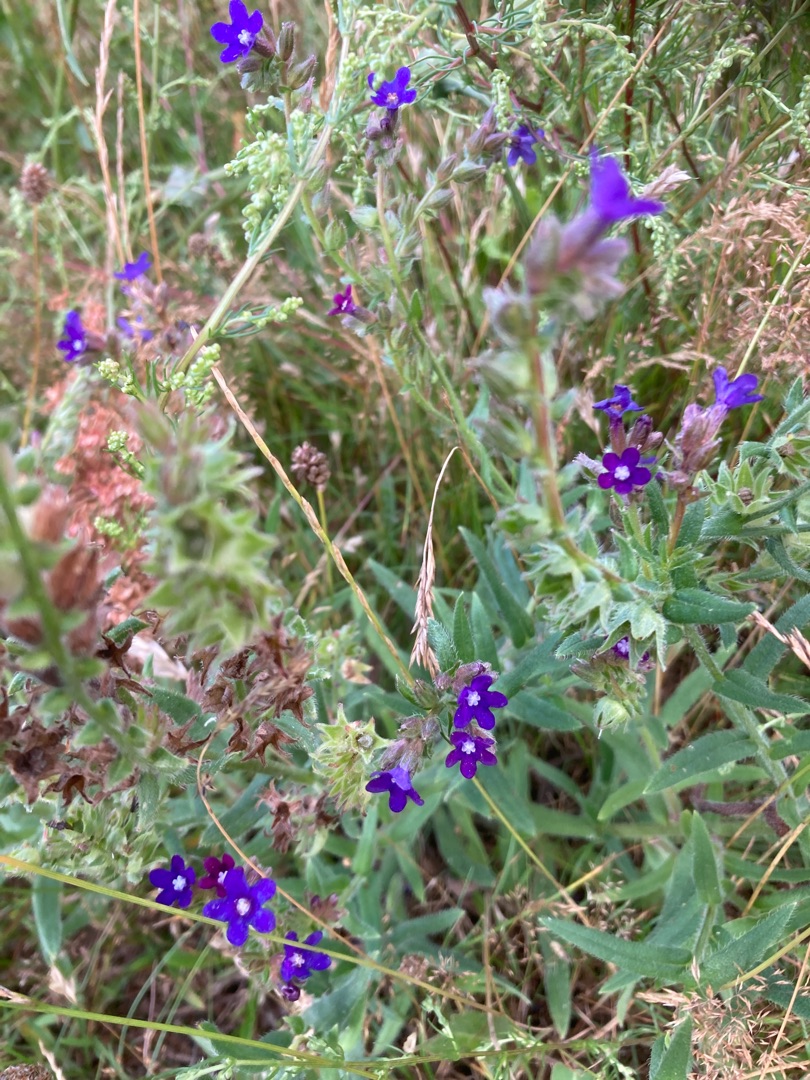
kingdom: Plantae
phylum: Tracheophyta
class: Magnoliopsida
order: Boraginales
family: Boraginaceae
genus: Anchusa
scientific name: Anchusa officinalis
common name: Læge-oksetunge
